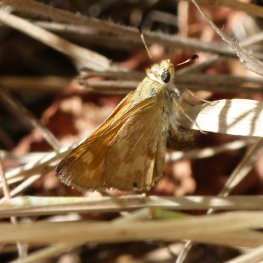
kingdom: Animalia
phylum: Arthropoda
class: Insecta
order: Lepidoptera
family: Hesperiidae
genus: Ochlodes
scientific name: Ochlodes sylvanoides
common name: Woodland Skipper
